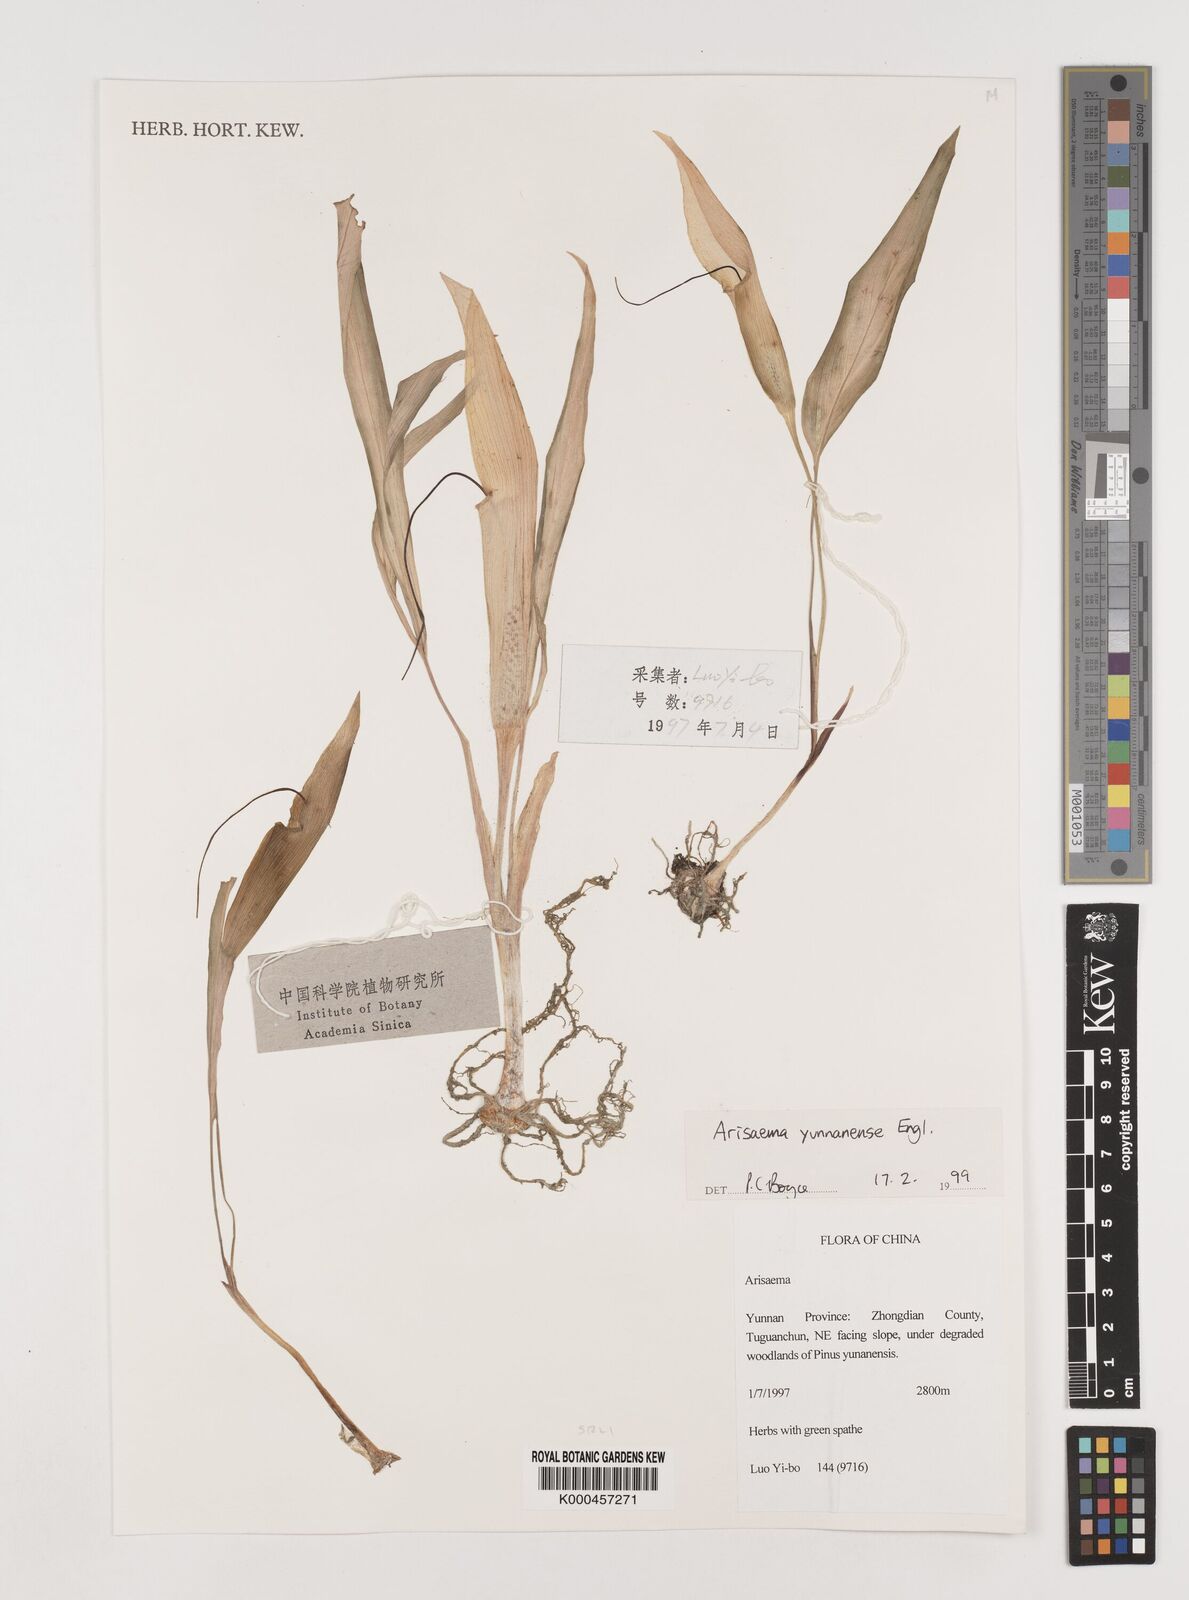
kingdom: Plantae
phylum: Tracheophyta
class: Liliopsida
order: Alismatales
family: Araceae
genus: Arisaema
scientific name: Arisaema yunnanense
